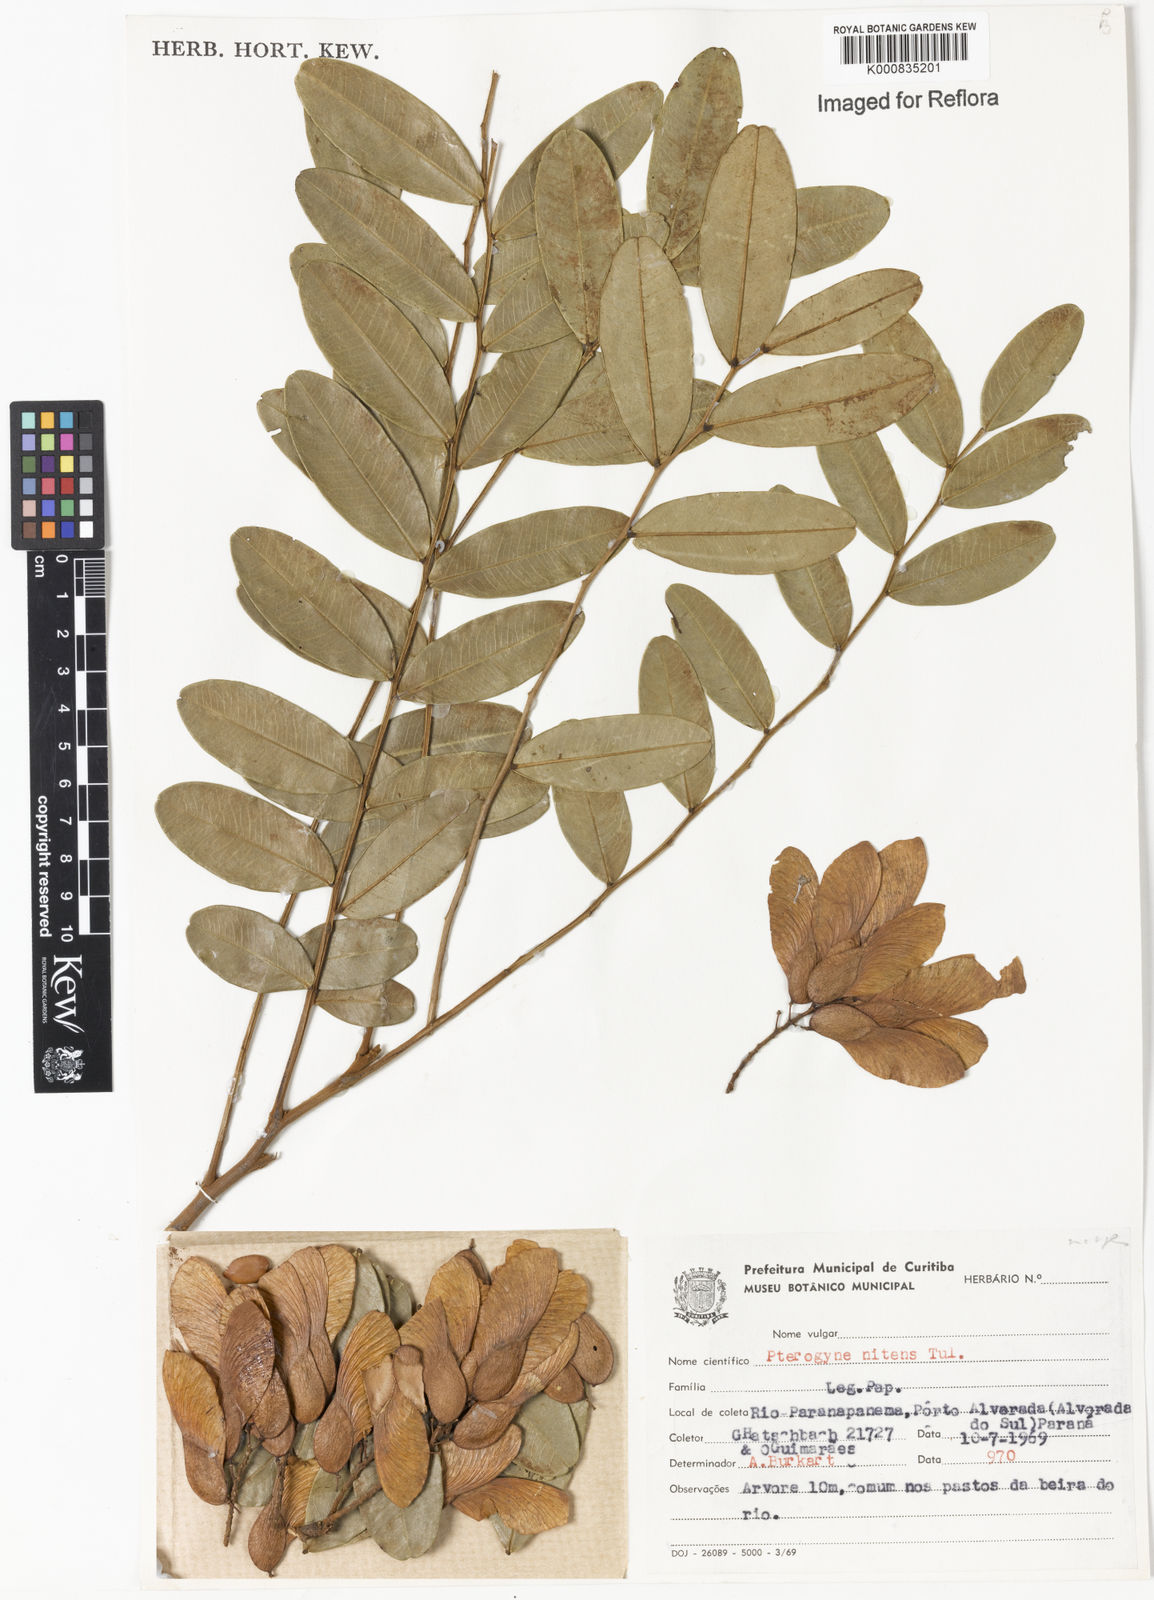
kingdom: Plantae
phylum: Tracheophyta
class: Magnoliopsida
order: Fabales
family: Fabaceae
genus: Pterogyne
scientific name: Pterogyne nitens
